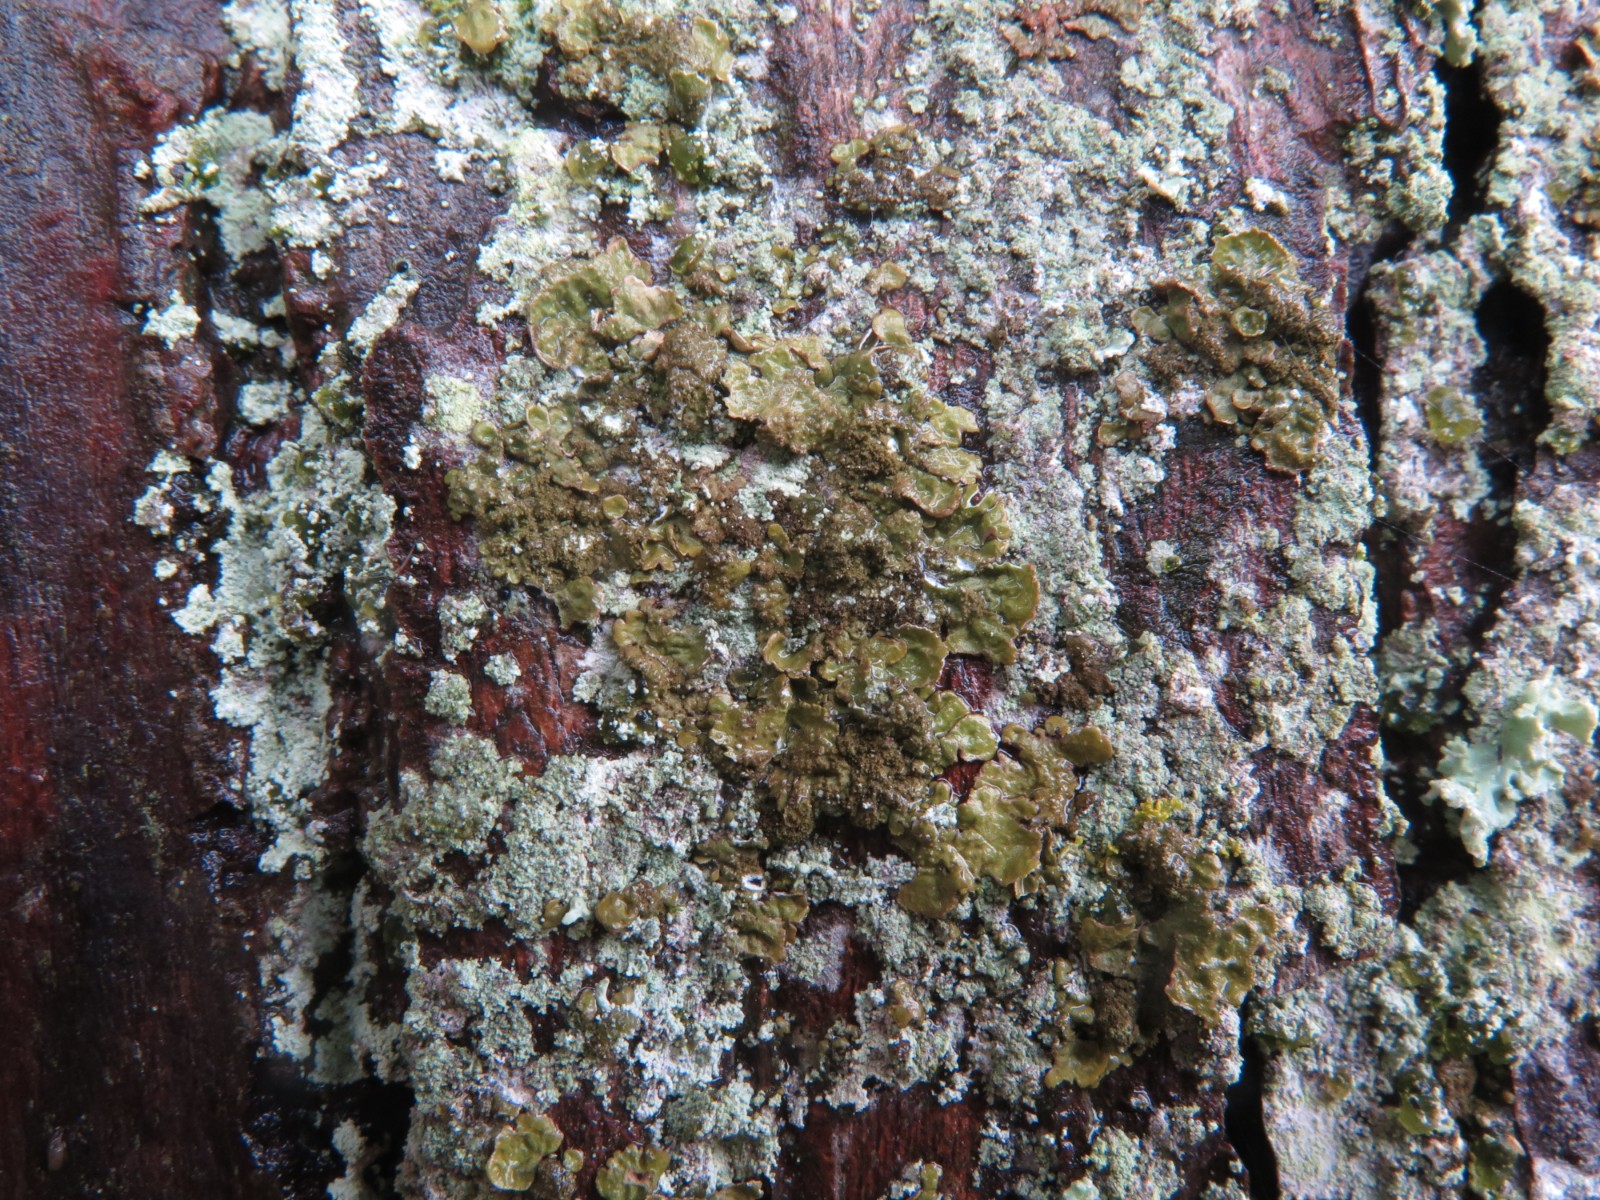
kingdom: Fungi
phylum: Ascomycota
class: Lecanoromycetes
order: Lecanorales
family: Parmeliaceae
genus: Melanelixia
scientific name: Melanelixia subaurifera
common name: guldpudret skållav
